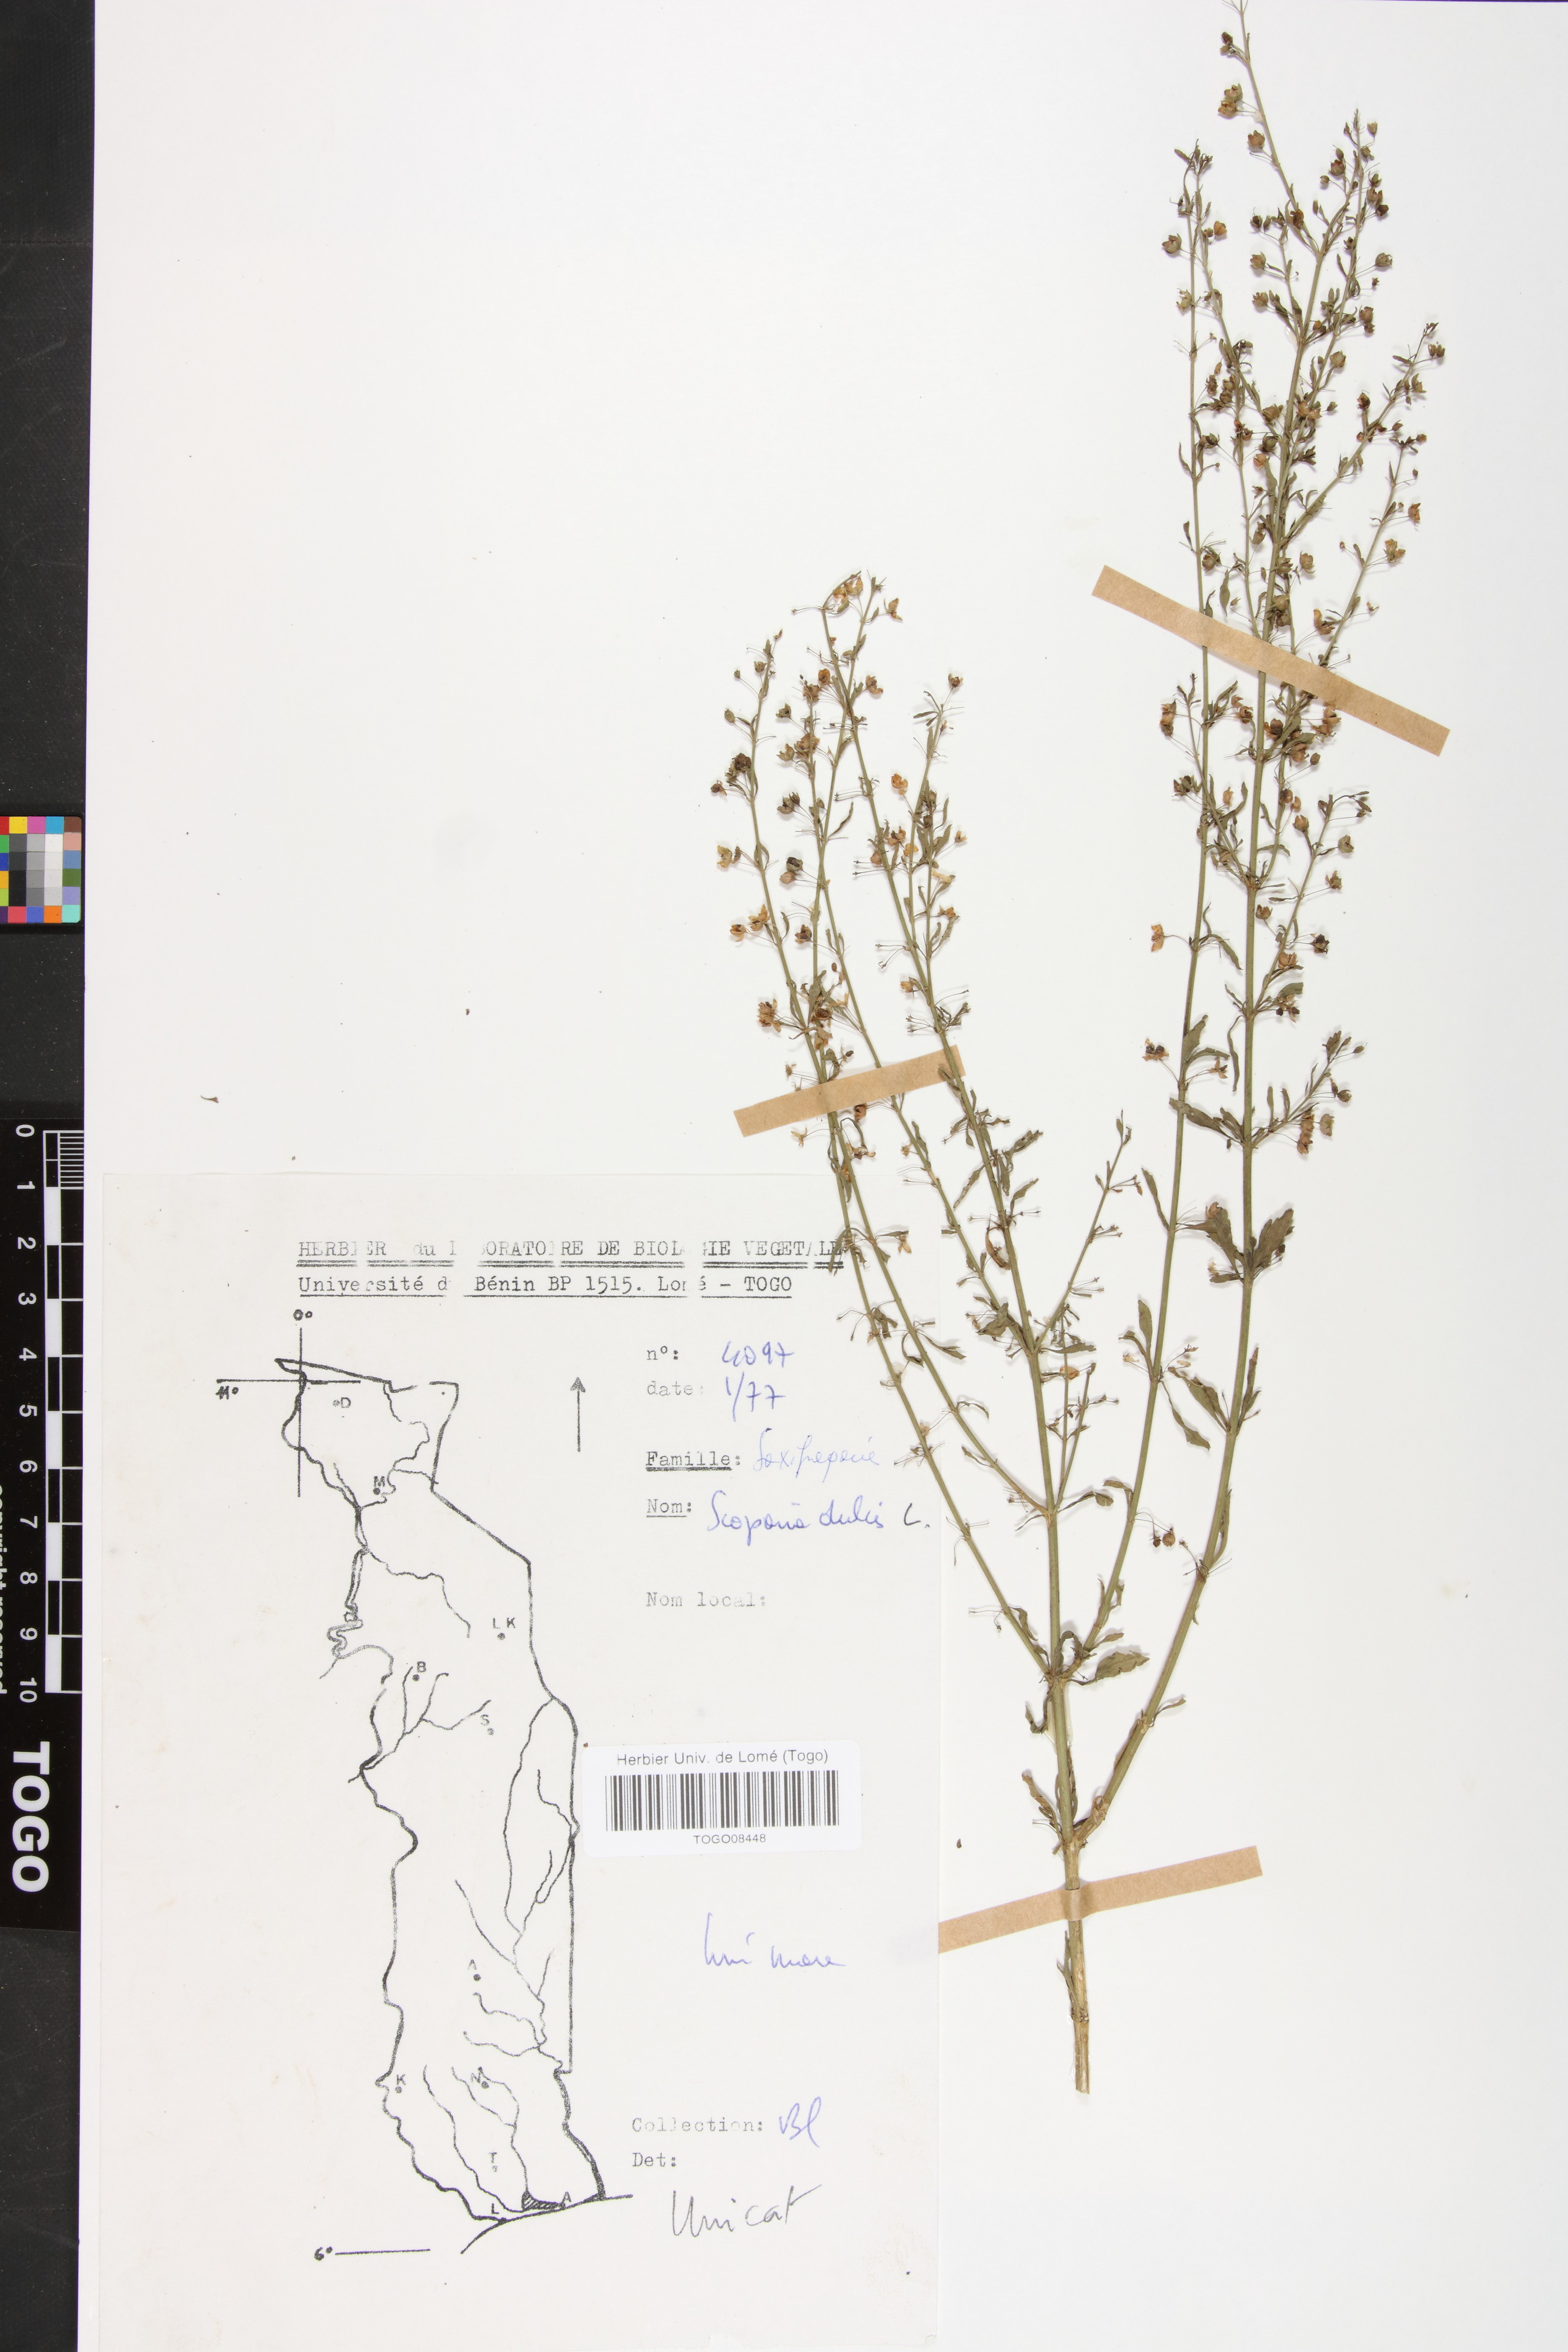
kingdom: Plantae
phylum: Tracheophyta
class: Magnoliopsida
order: Lamiales
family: Plantaginaceae
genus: Scoparia
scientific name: Scoparia dulcis
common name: Scoparia-weed
